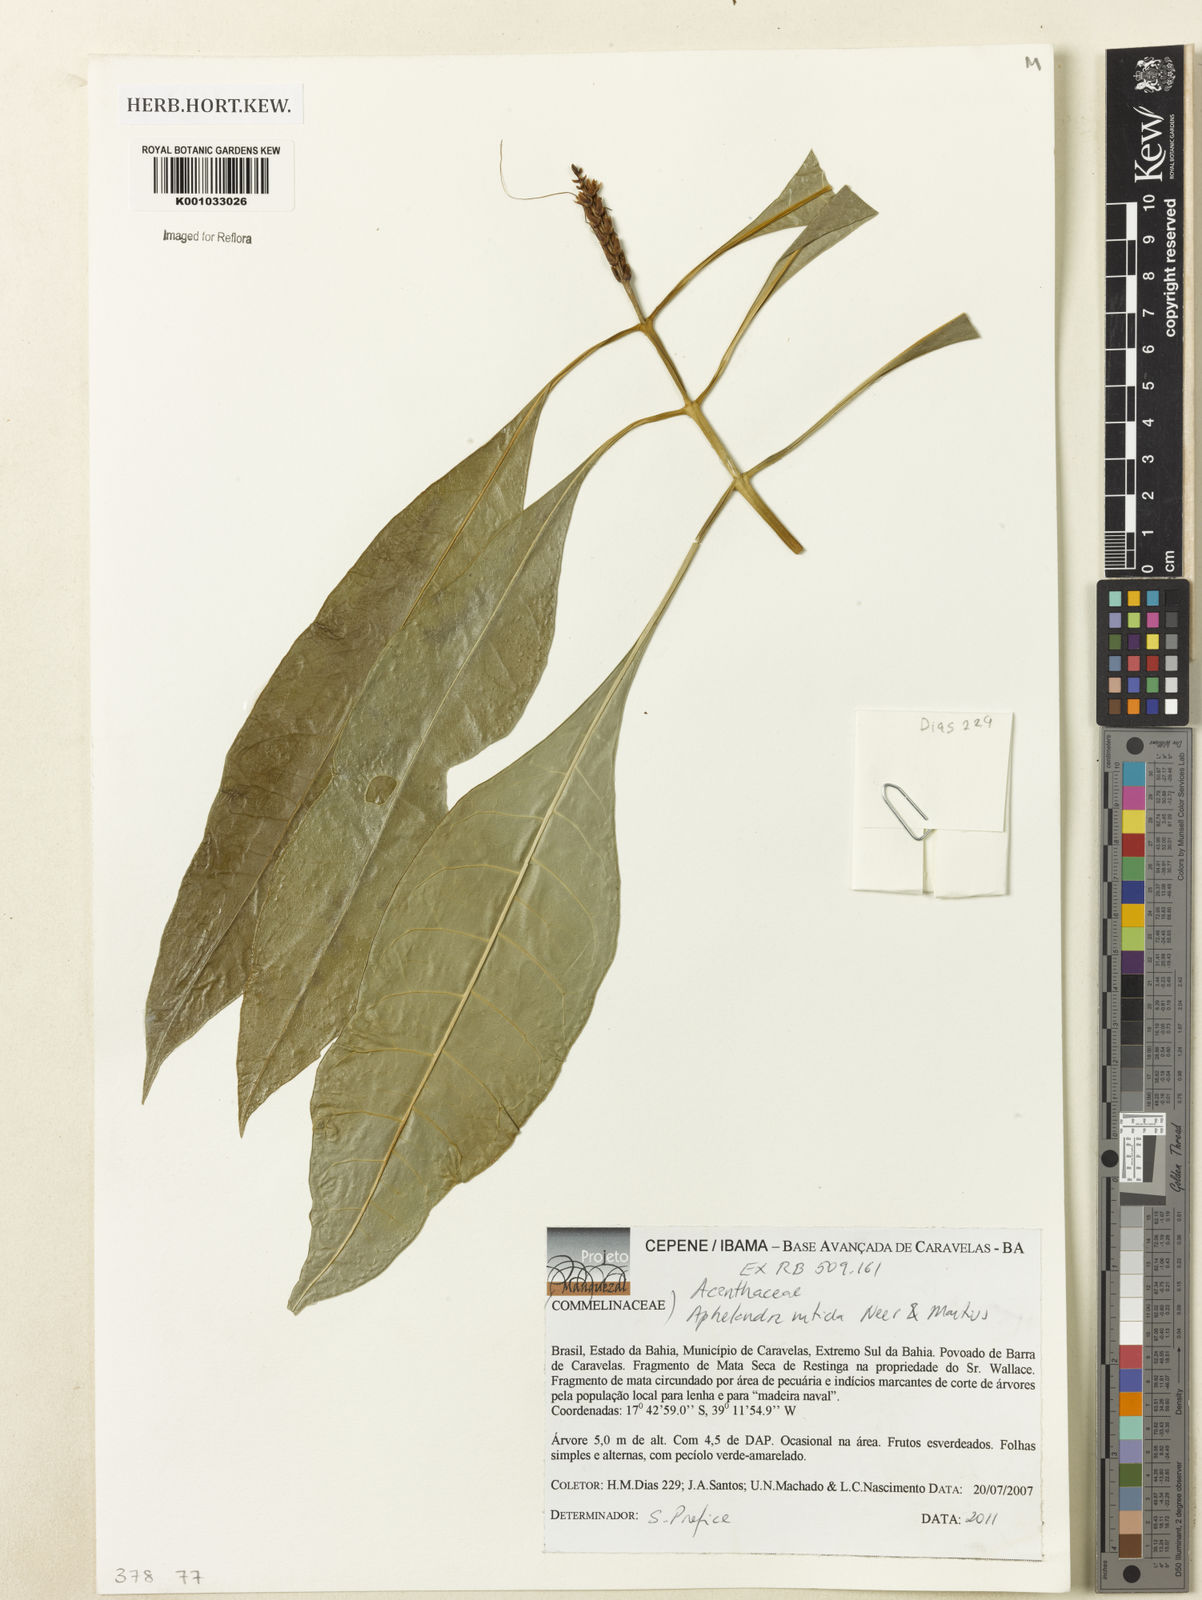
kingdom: Plantae
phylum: Tracheophyta
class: Magnoliopsida
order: Lamiales
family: Acanthaceae
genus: Aphelandra
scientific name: Aphelandra nitida
